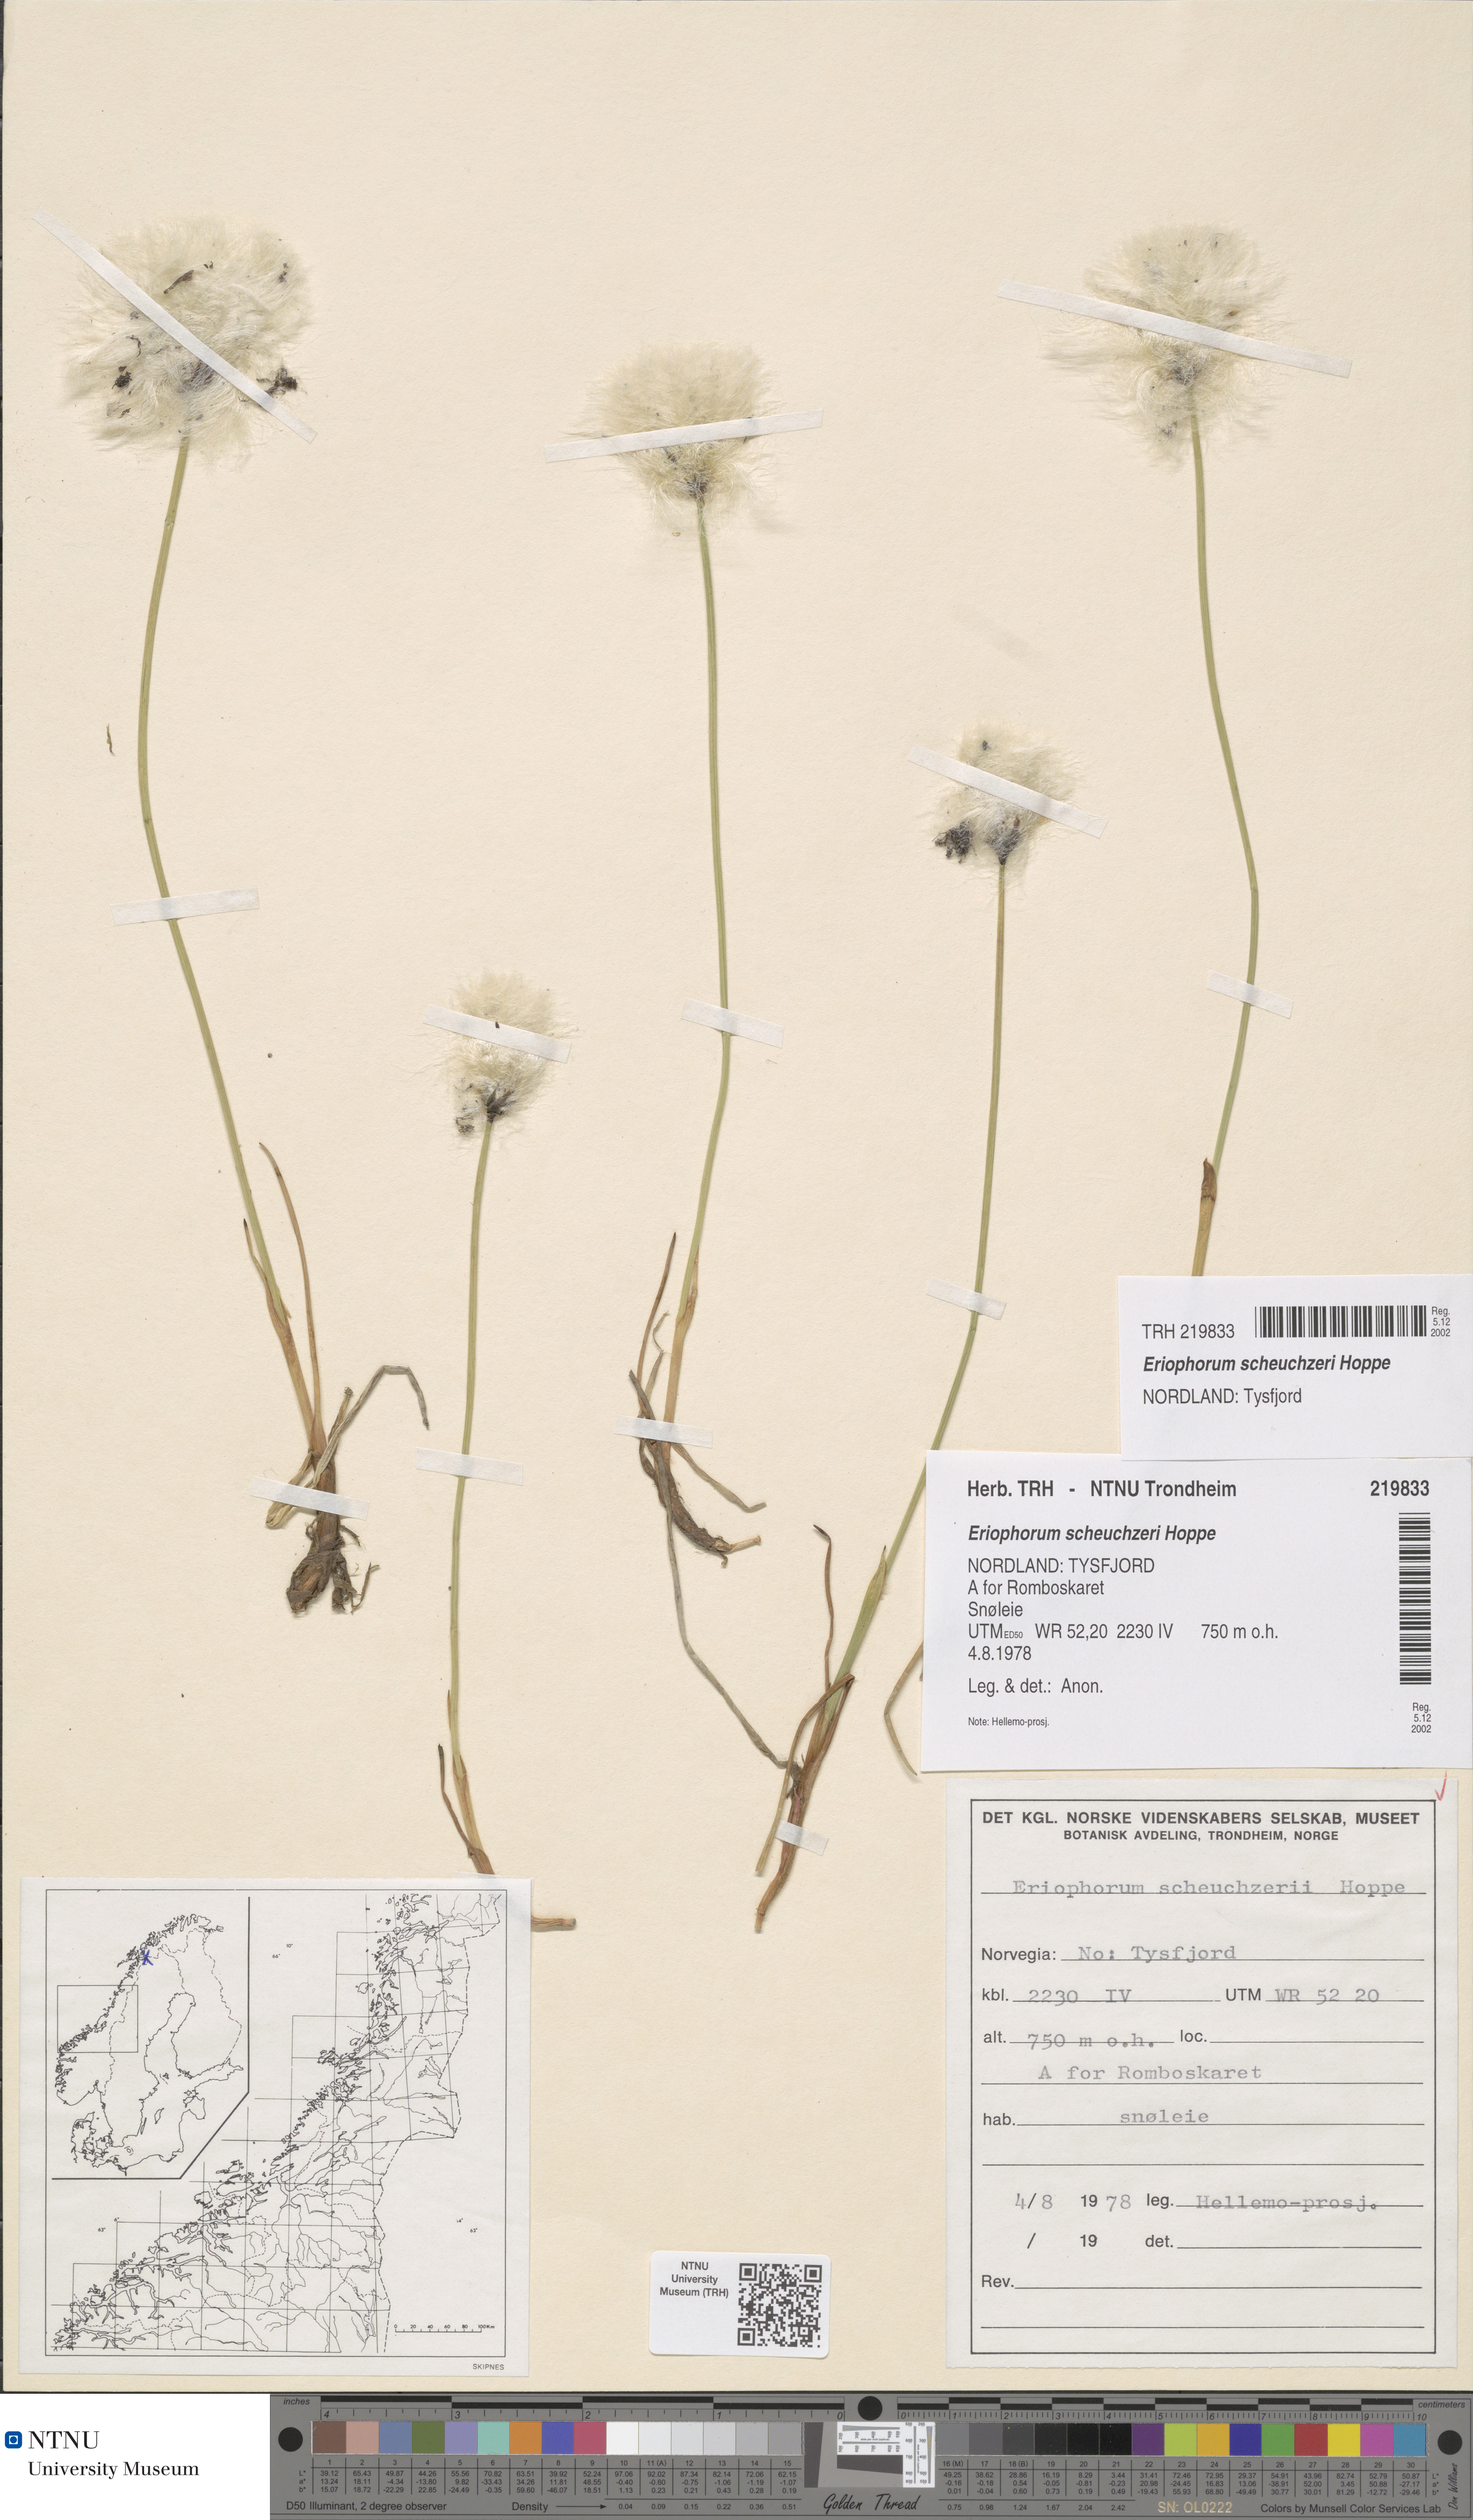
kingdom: Plantae
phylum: Tracheophyta
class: Liliopsida
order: Poales
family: Cyperaceae
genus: Eriophorum
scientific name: Eriophorum scheuchzeri
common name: Scheuchzer's cottongrass
